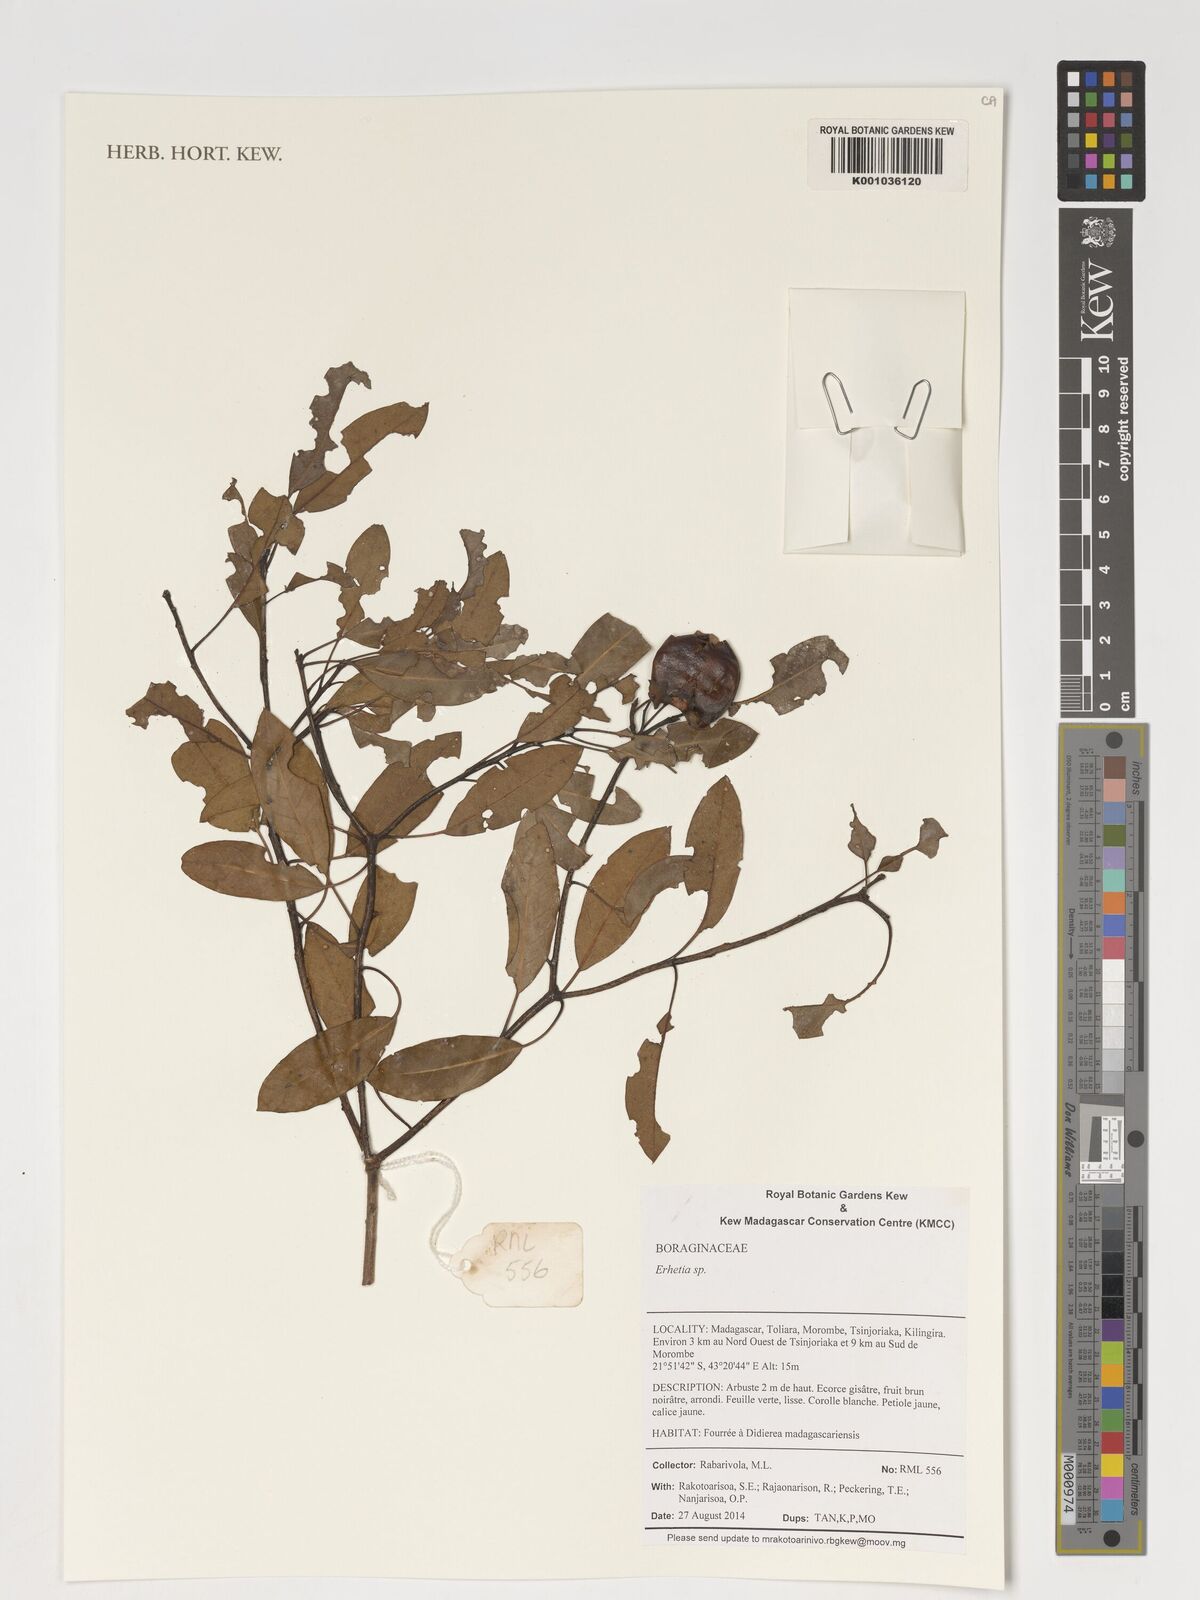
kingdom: Plantae
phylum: Tracheophyta
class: Magnoliopsida
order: Boraginales
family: Ehretiaceae
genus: Ehretia
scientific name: Ehretia
